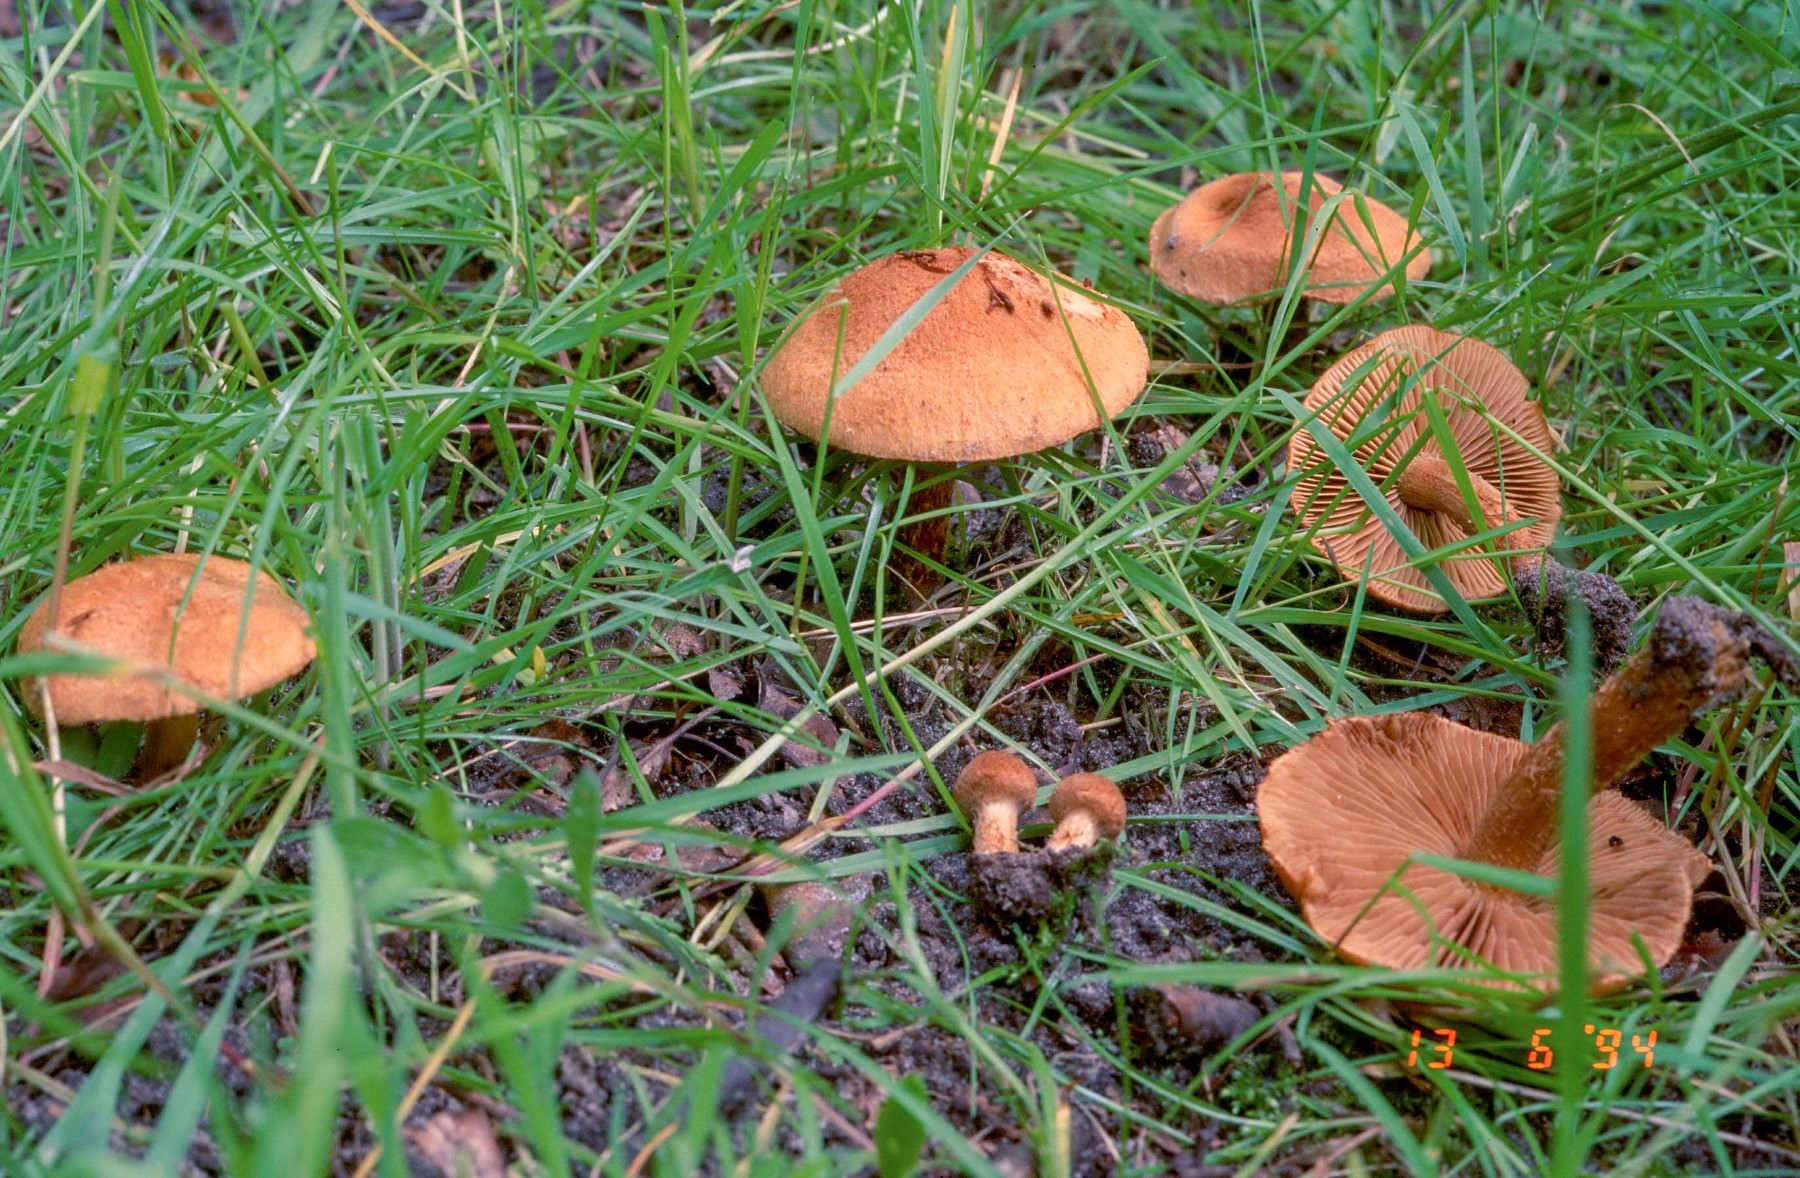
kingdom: Fungi
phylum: Basidiomycota
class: Agaricomycetes
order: Agaricales
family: Inocybaceae
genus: Inocybe
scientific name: Inocybe dulcamara
